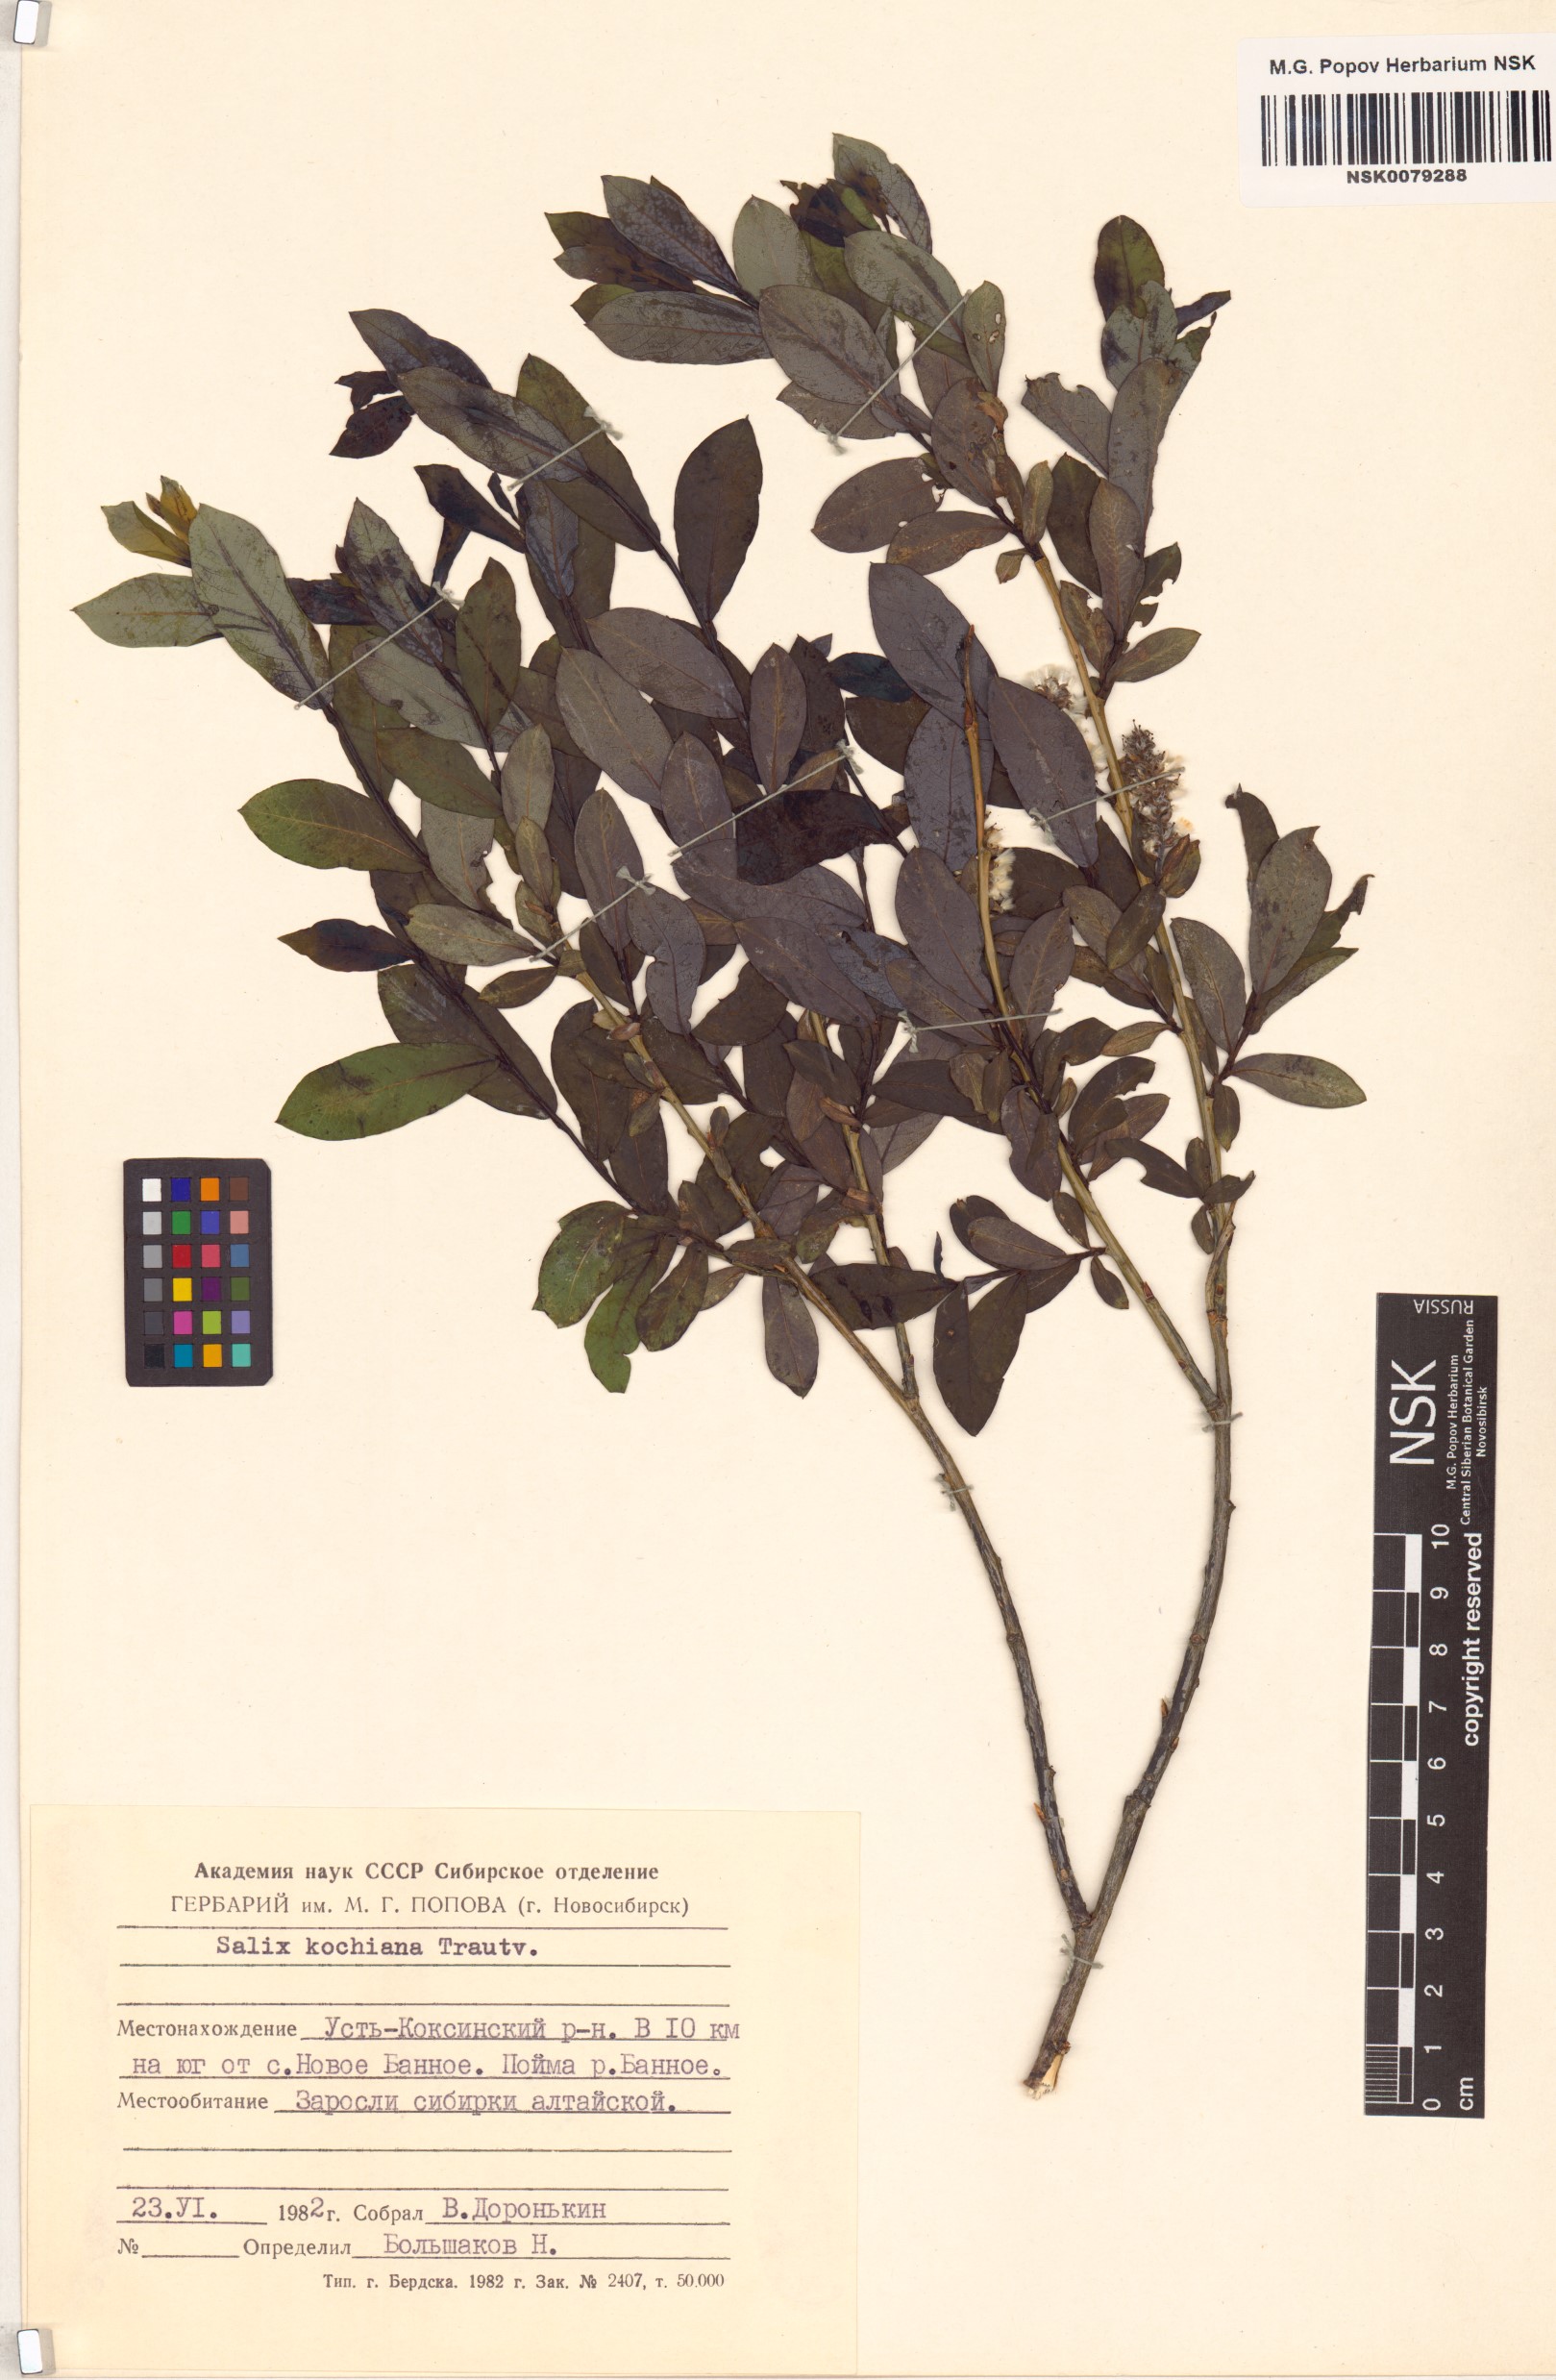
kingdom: Plantae
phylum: Tracheophyta
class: Magnoliopsida
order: Malpighiales
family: Salicaceae
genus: Salix
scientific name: Salix kochiana
